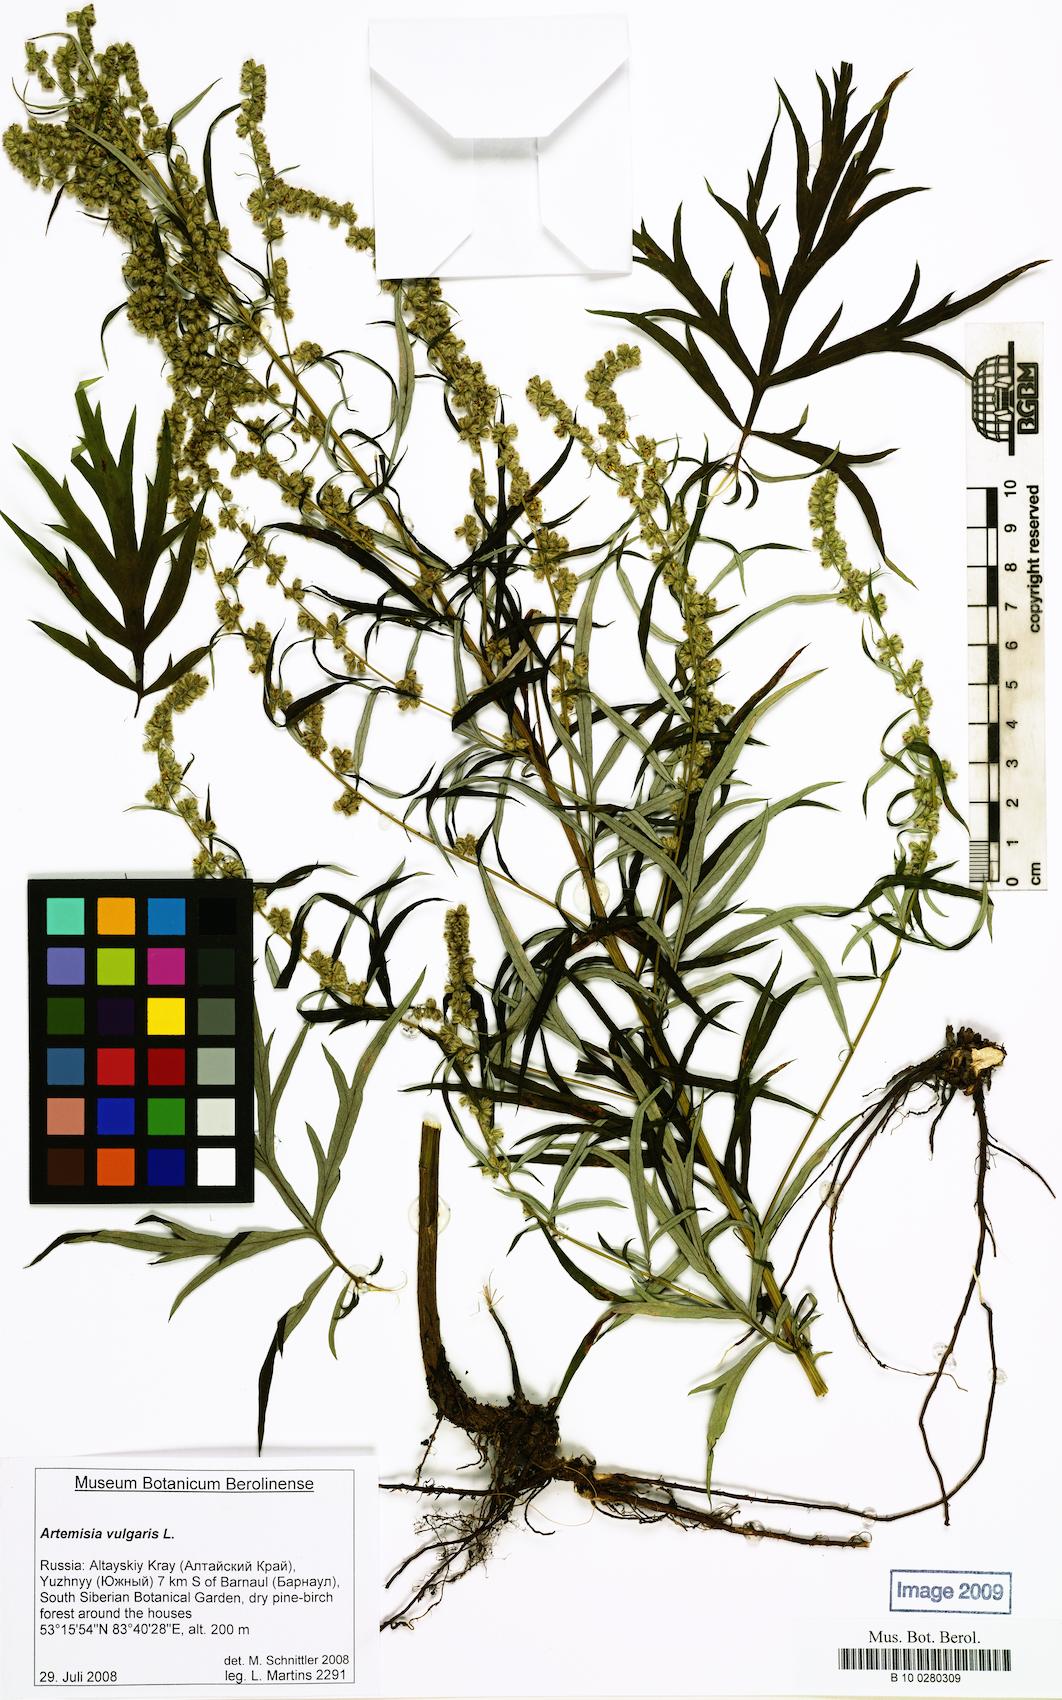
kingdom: Plantae
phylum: Tracheophyta
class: Magnoliopsida
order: Asterales
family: Asteraceae
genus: Artemisia
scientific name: Artemisia vulgaris
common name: Mugwort
